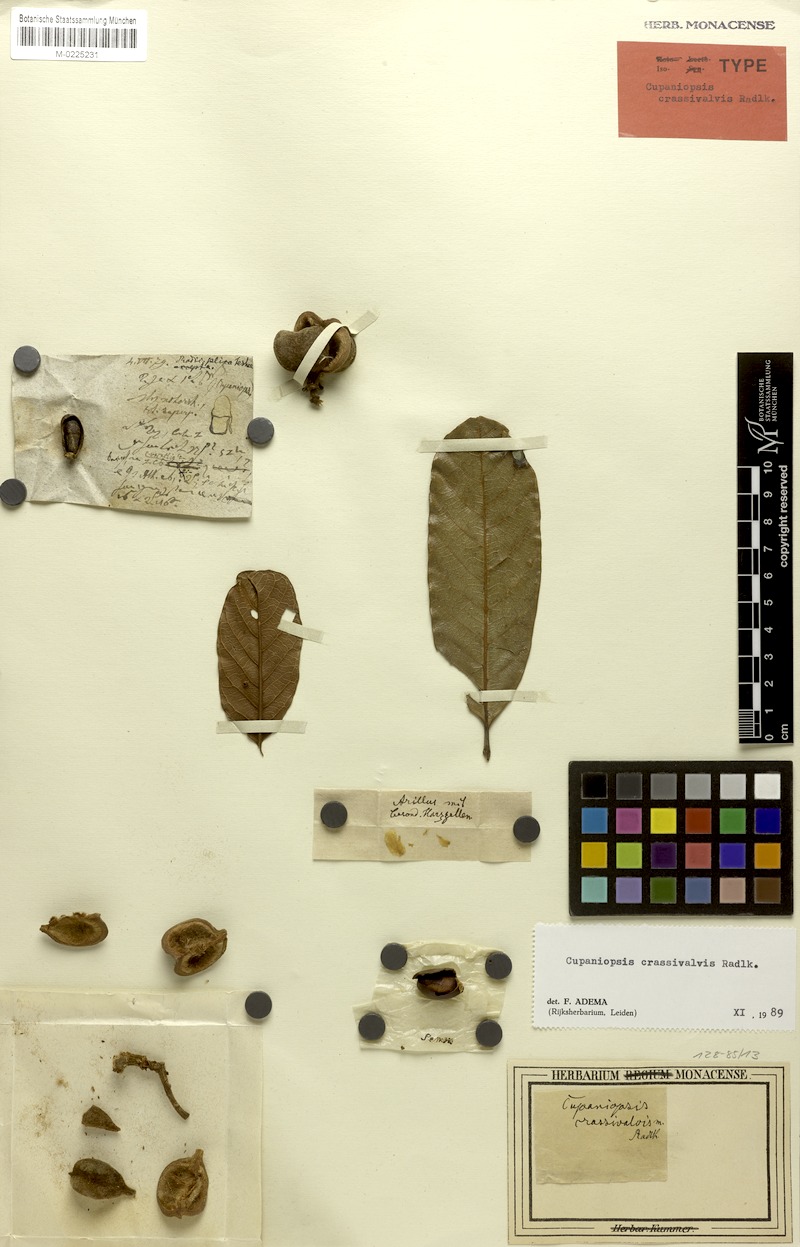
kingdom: Plantae
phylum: Tracheophyta
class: Magnoliopsida
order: Sapindales
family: Sapindaceae
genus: Cupaniopsis
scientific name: Cupaniopsis crassivalvis
